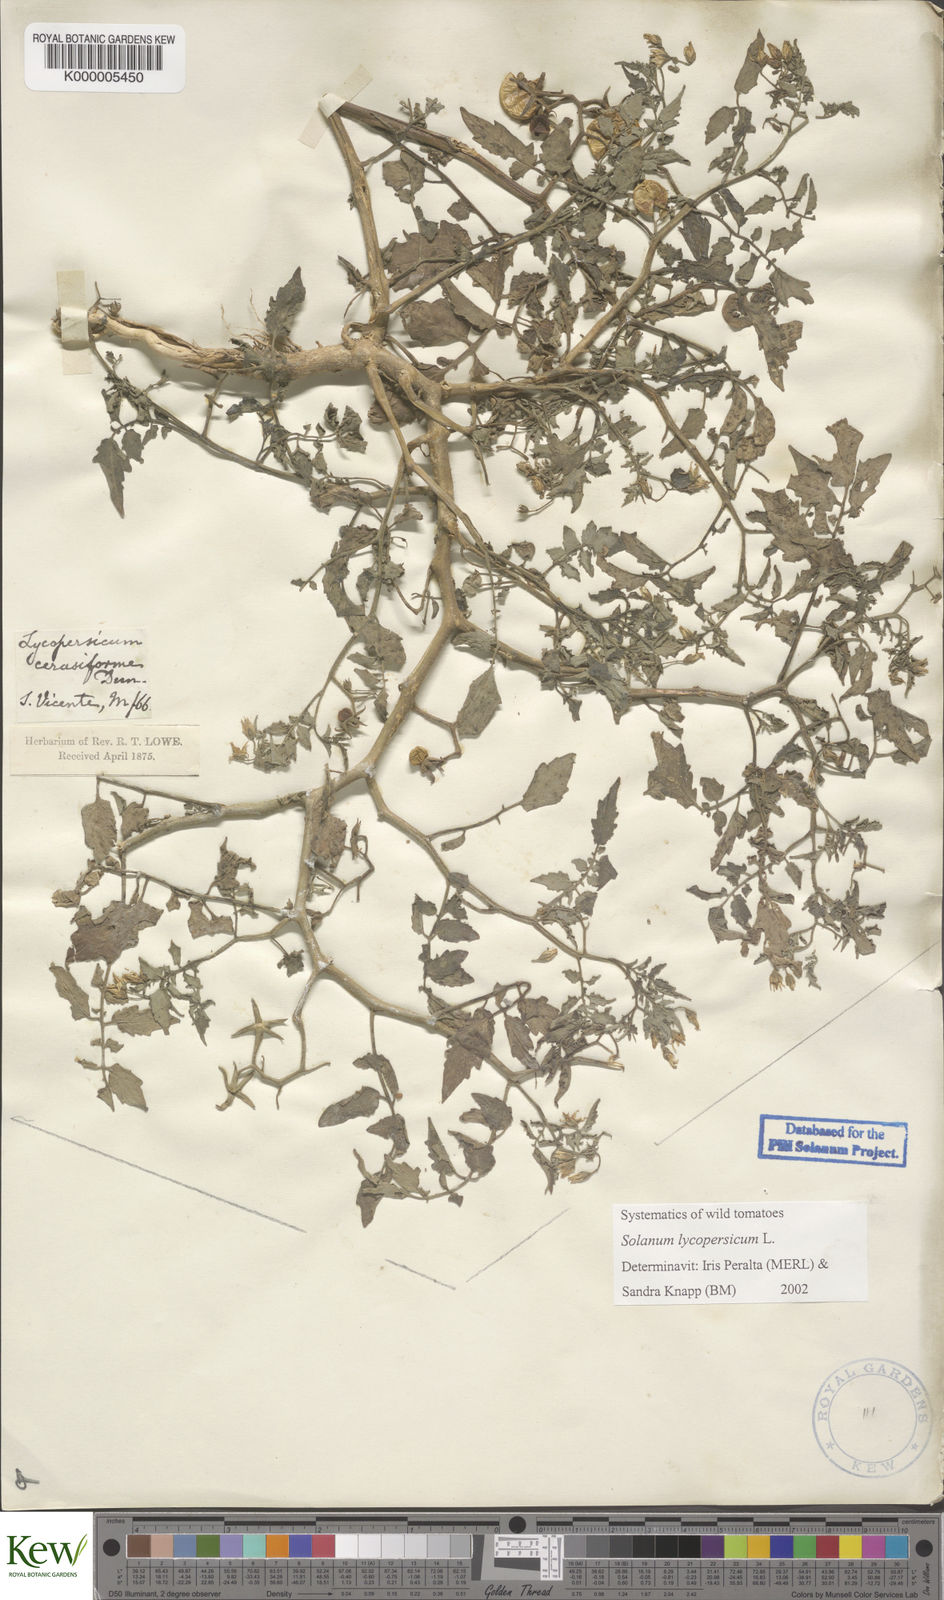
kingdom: Plantae
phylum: Tracheophyta
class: Magnoliopsida
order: Solanales
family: Solanaceae
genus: Solanum
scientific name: Solanum lycopersicum
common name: Garden tomato
